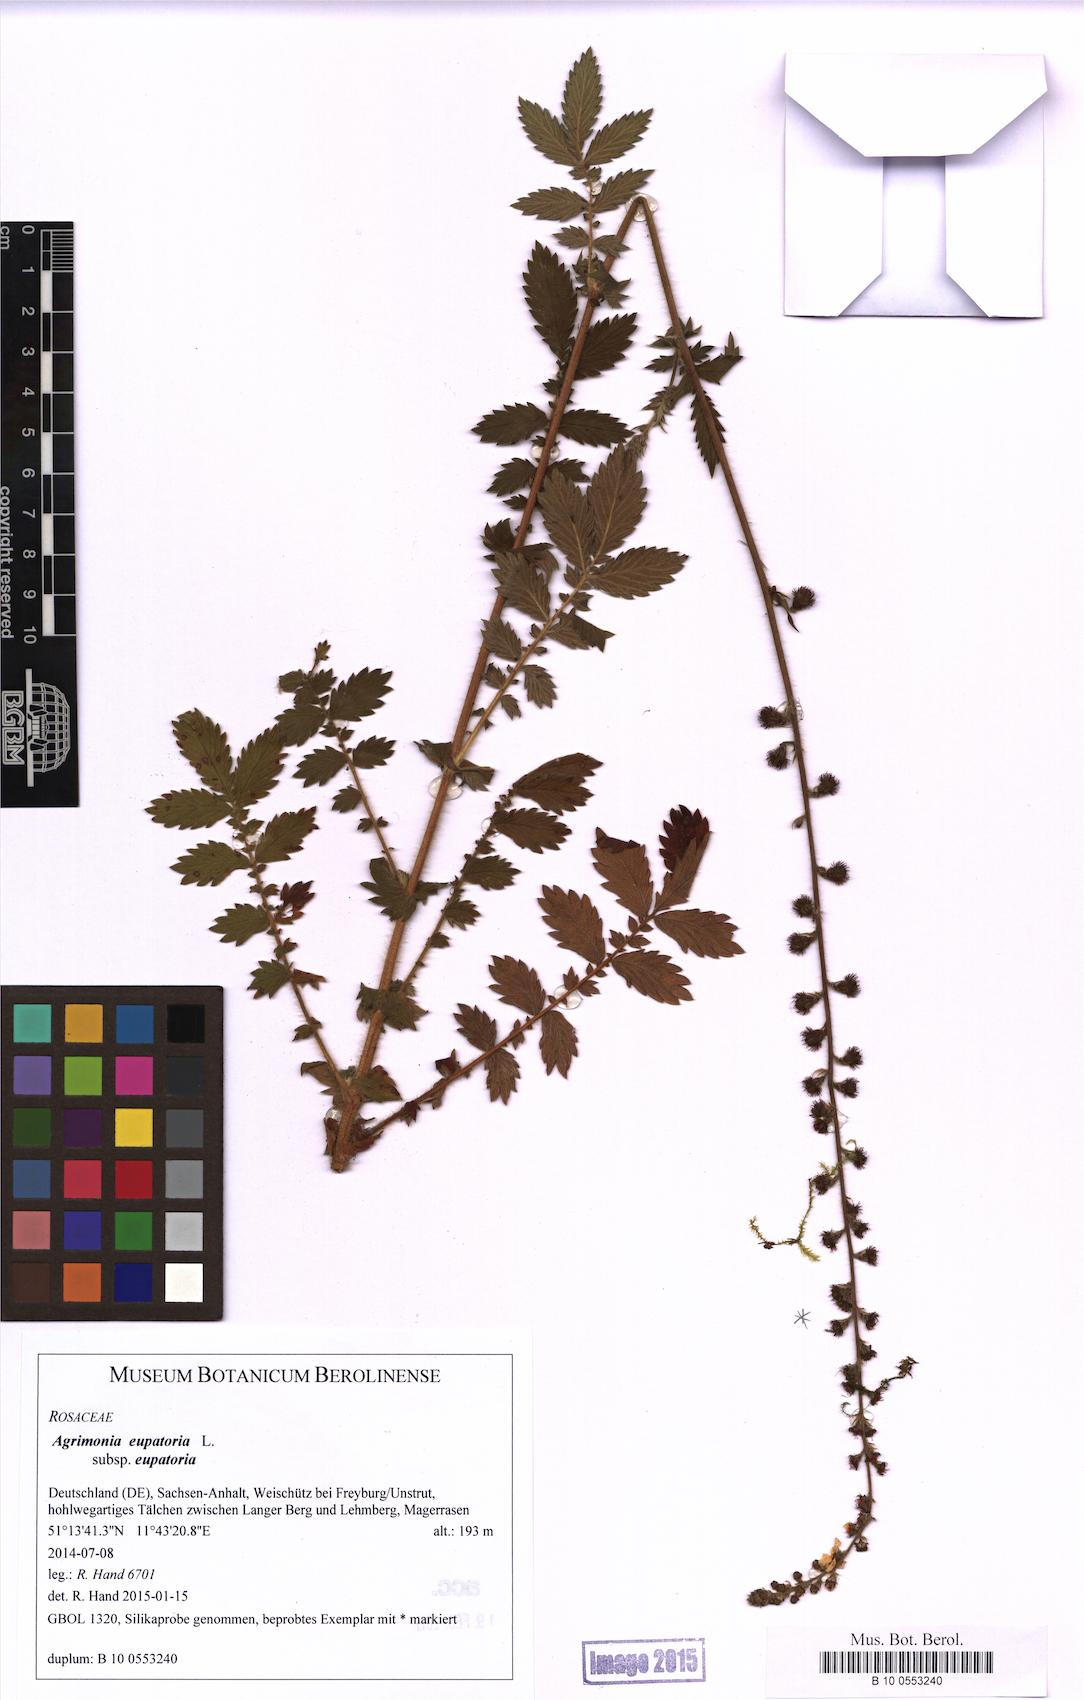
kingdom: Plantae
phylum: Tracheophyta
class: Magnoliopsida
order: Rosales
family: Rosaceae
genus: Agrimonia
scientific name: Agrimonia eupatoria
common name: Agrimony
